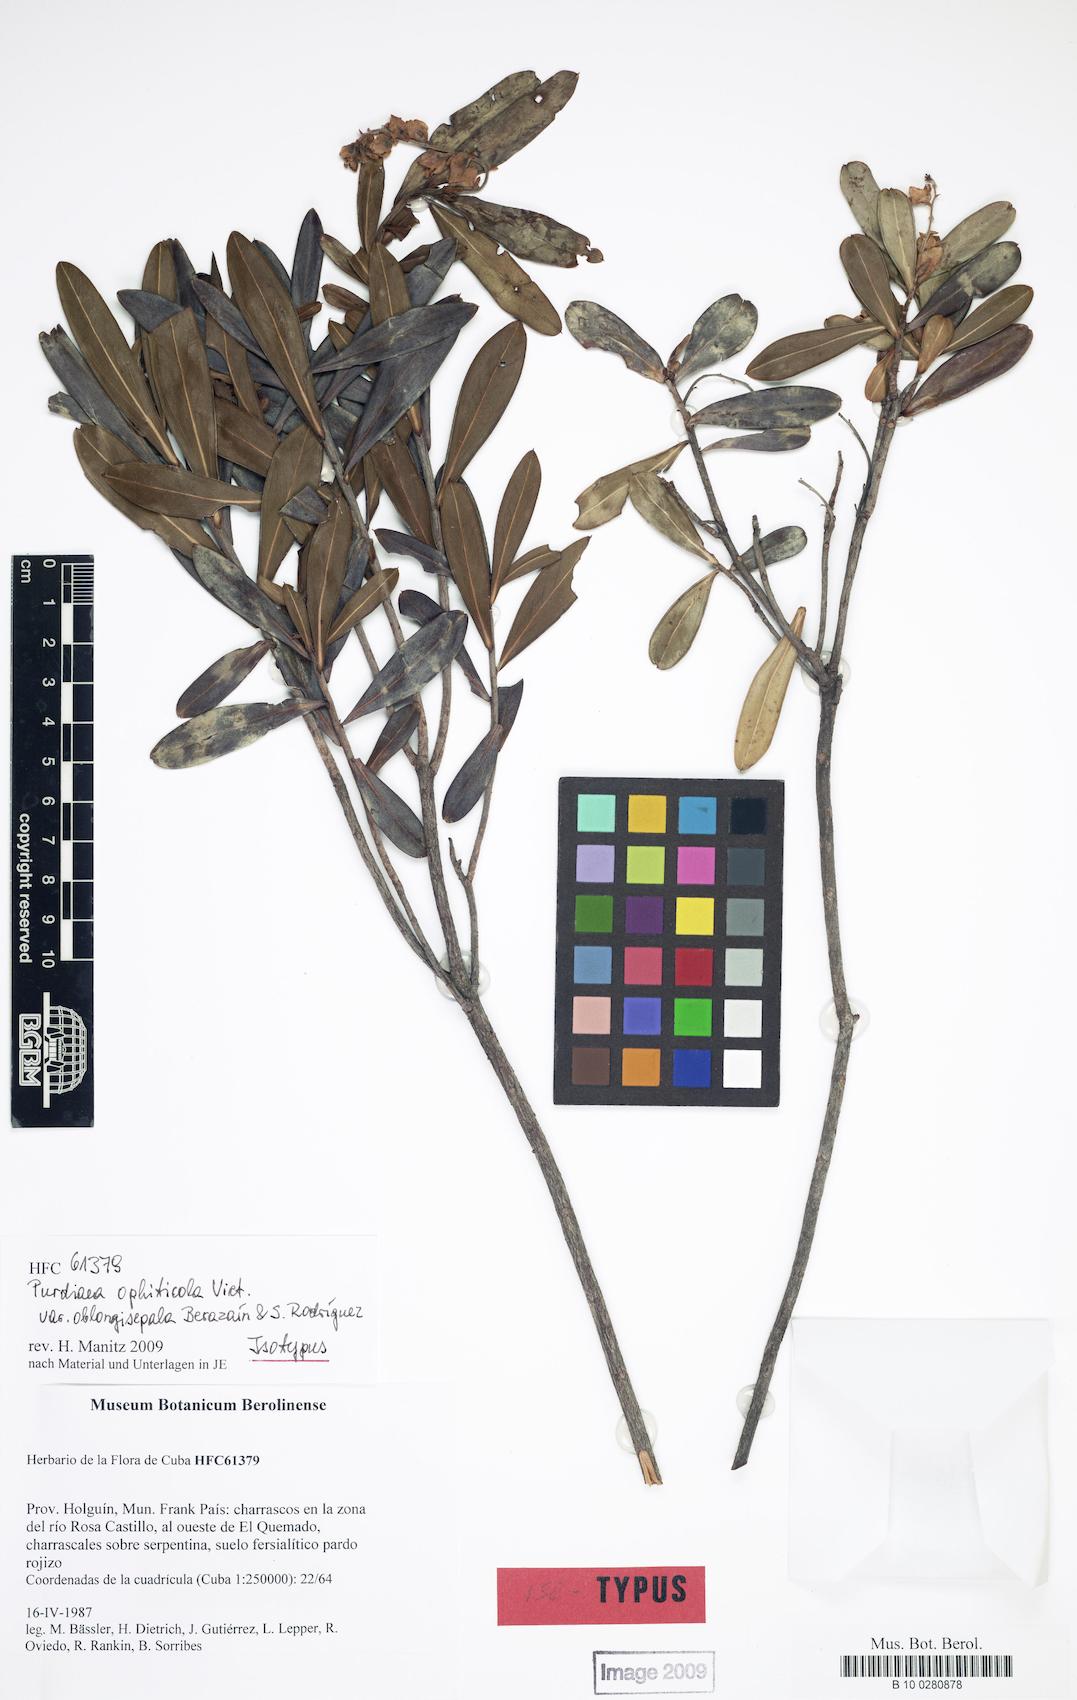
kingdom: Plantae
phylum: Tracheophyta
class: Magnoliopsida
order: Ericales
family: Clethraceae
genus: Purdiaea
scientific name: Purdiaea ophiticola
